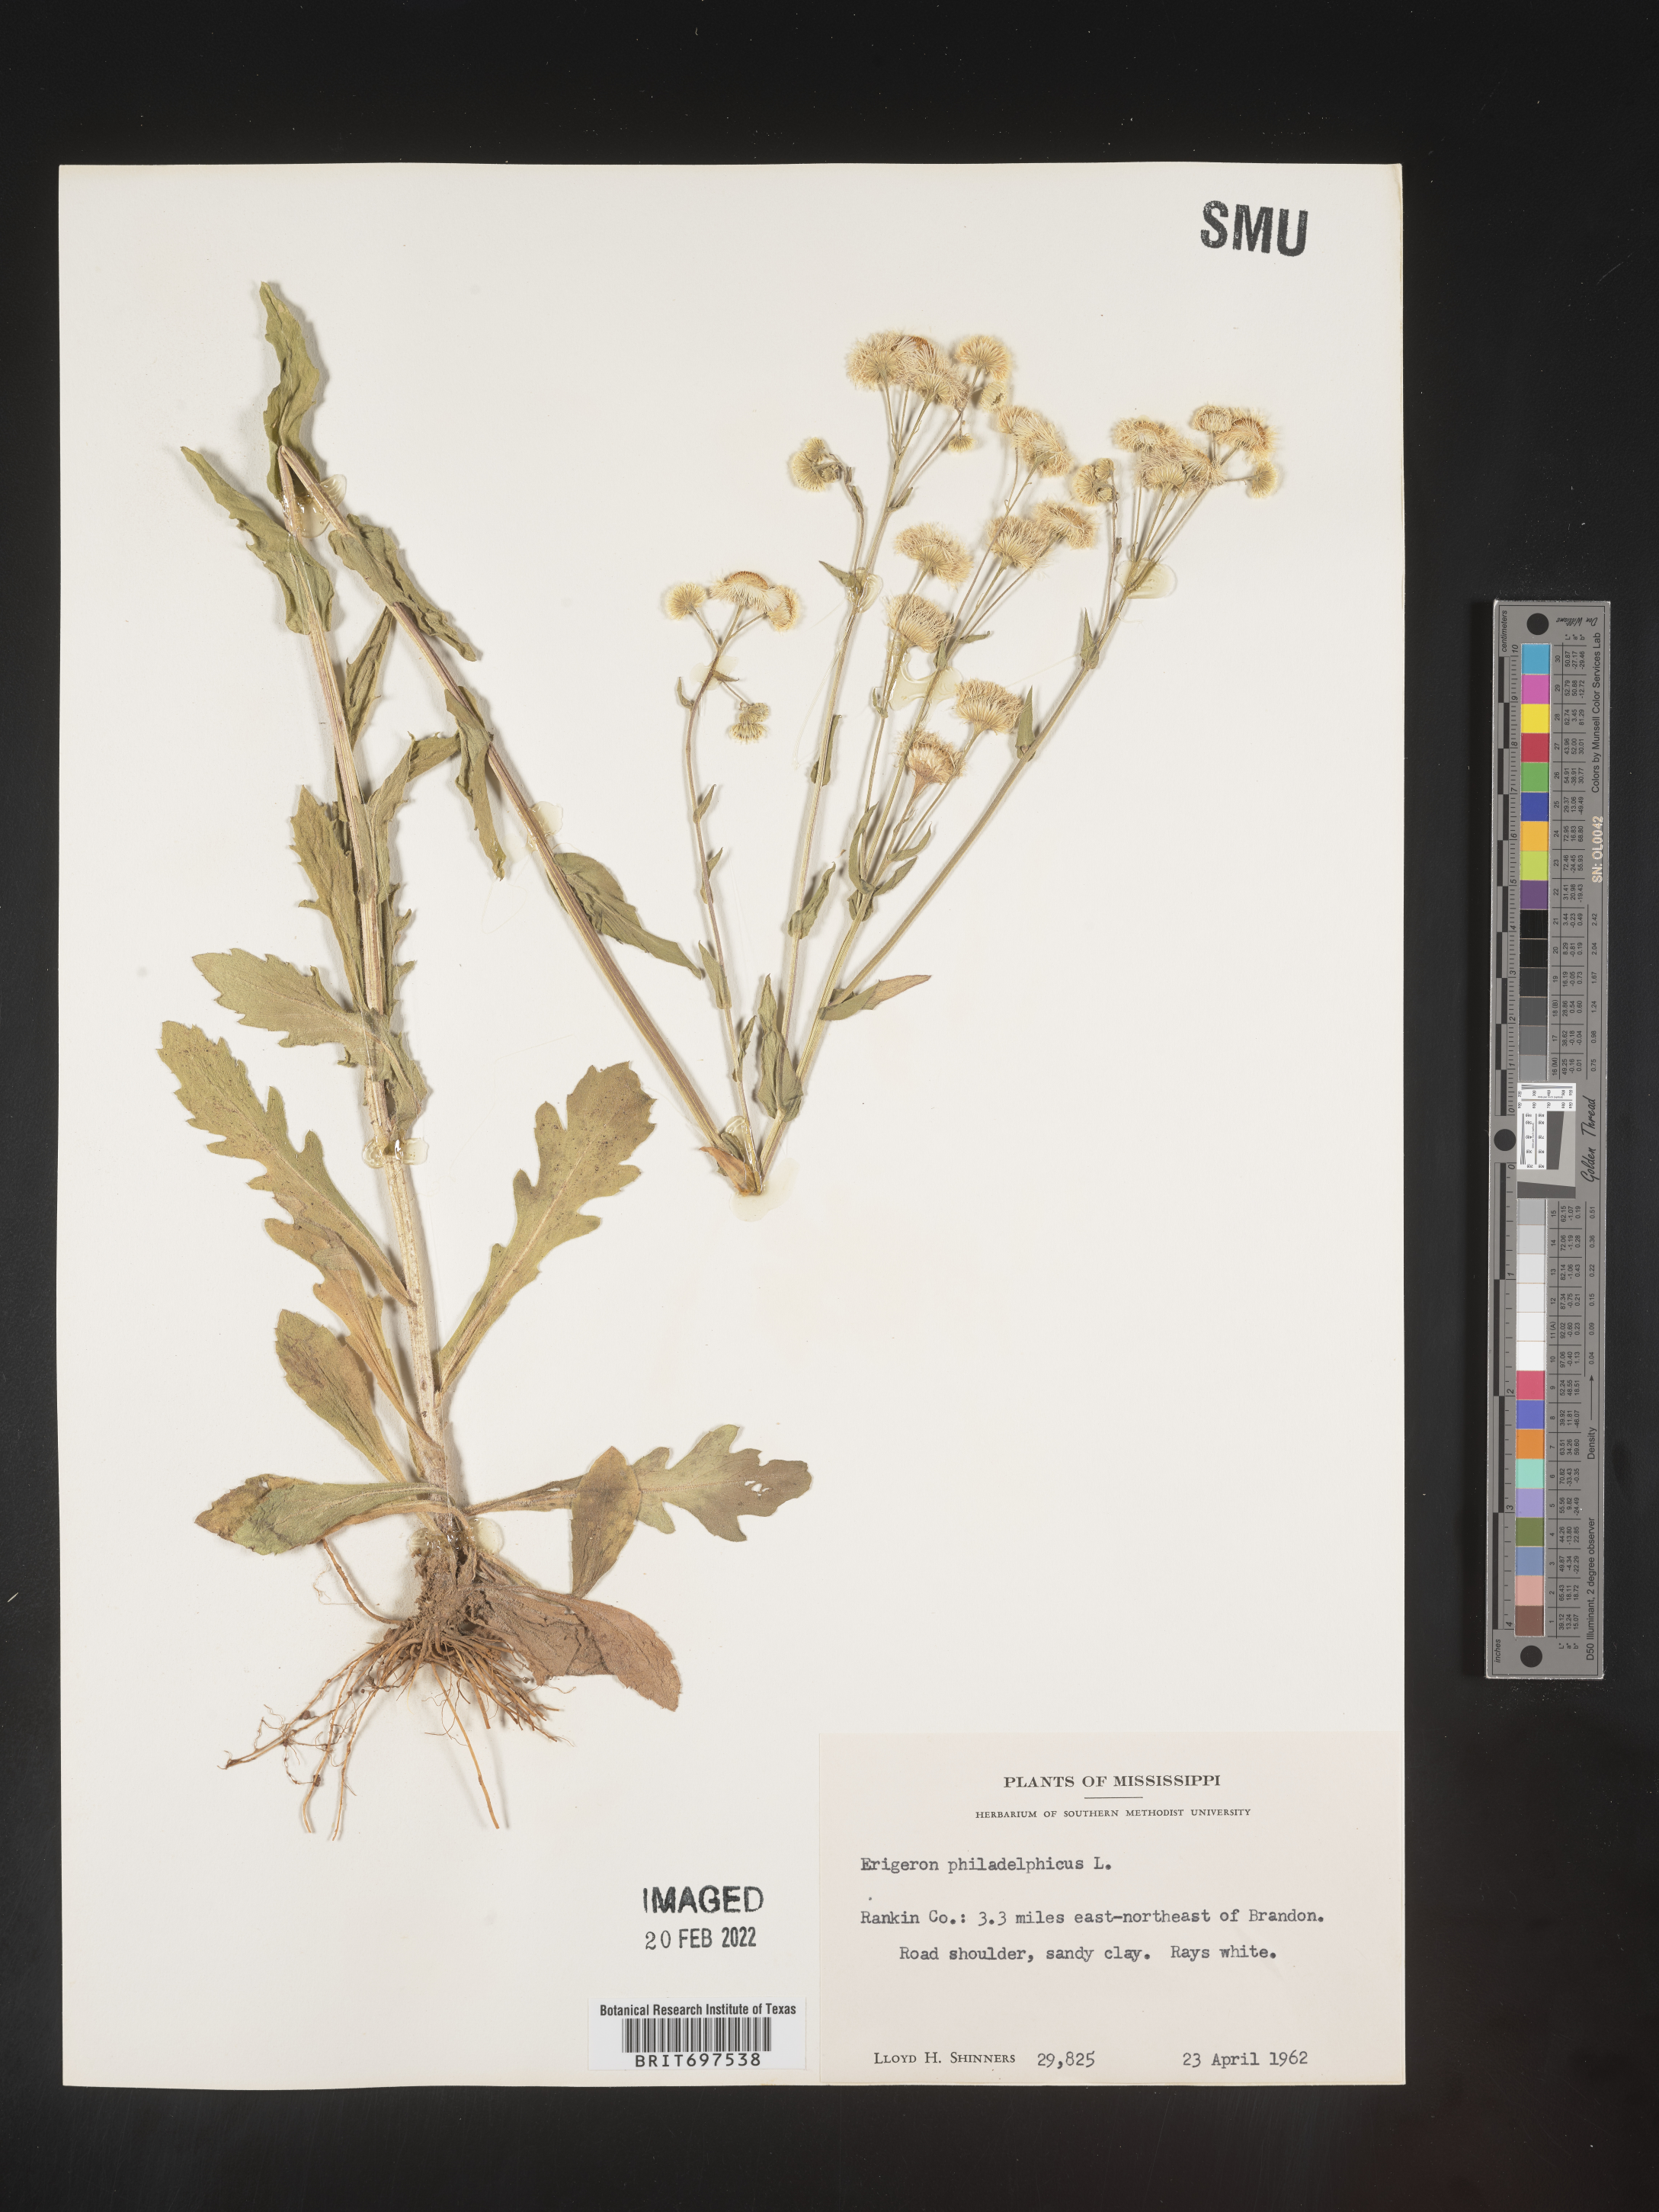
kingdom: Plantae
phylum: Tracheophyta
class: Magnoliopsida
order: Asterales
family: Asteraceae
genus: Erigeron
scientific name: Erigeron philadelphicus
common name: Robin's-plantain
